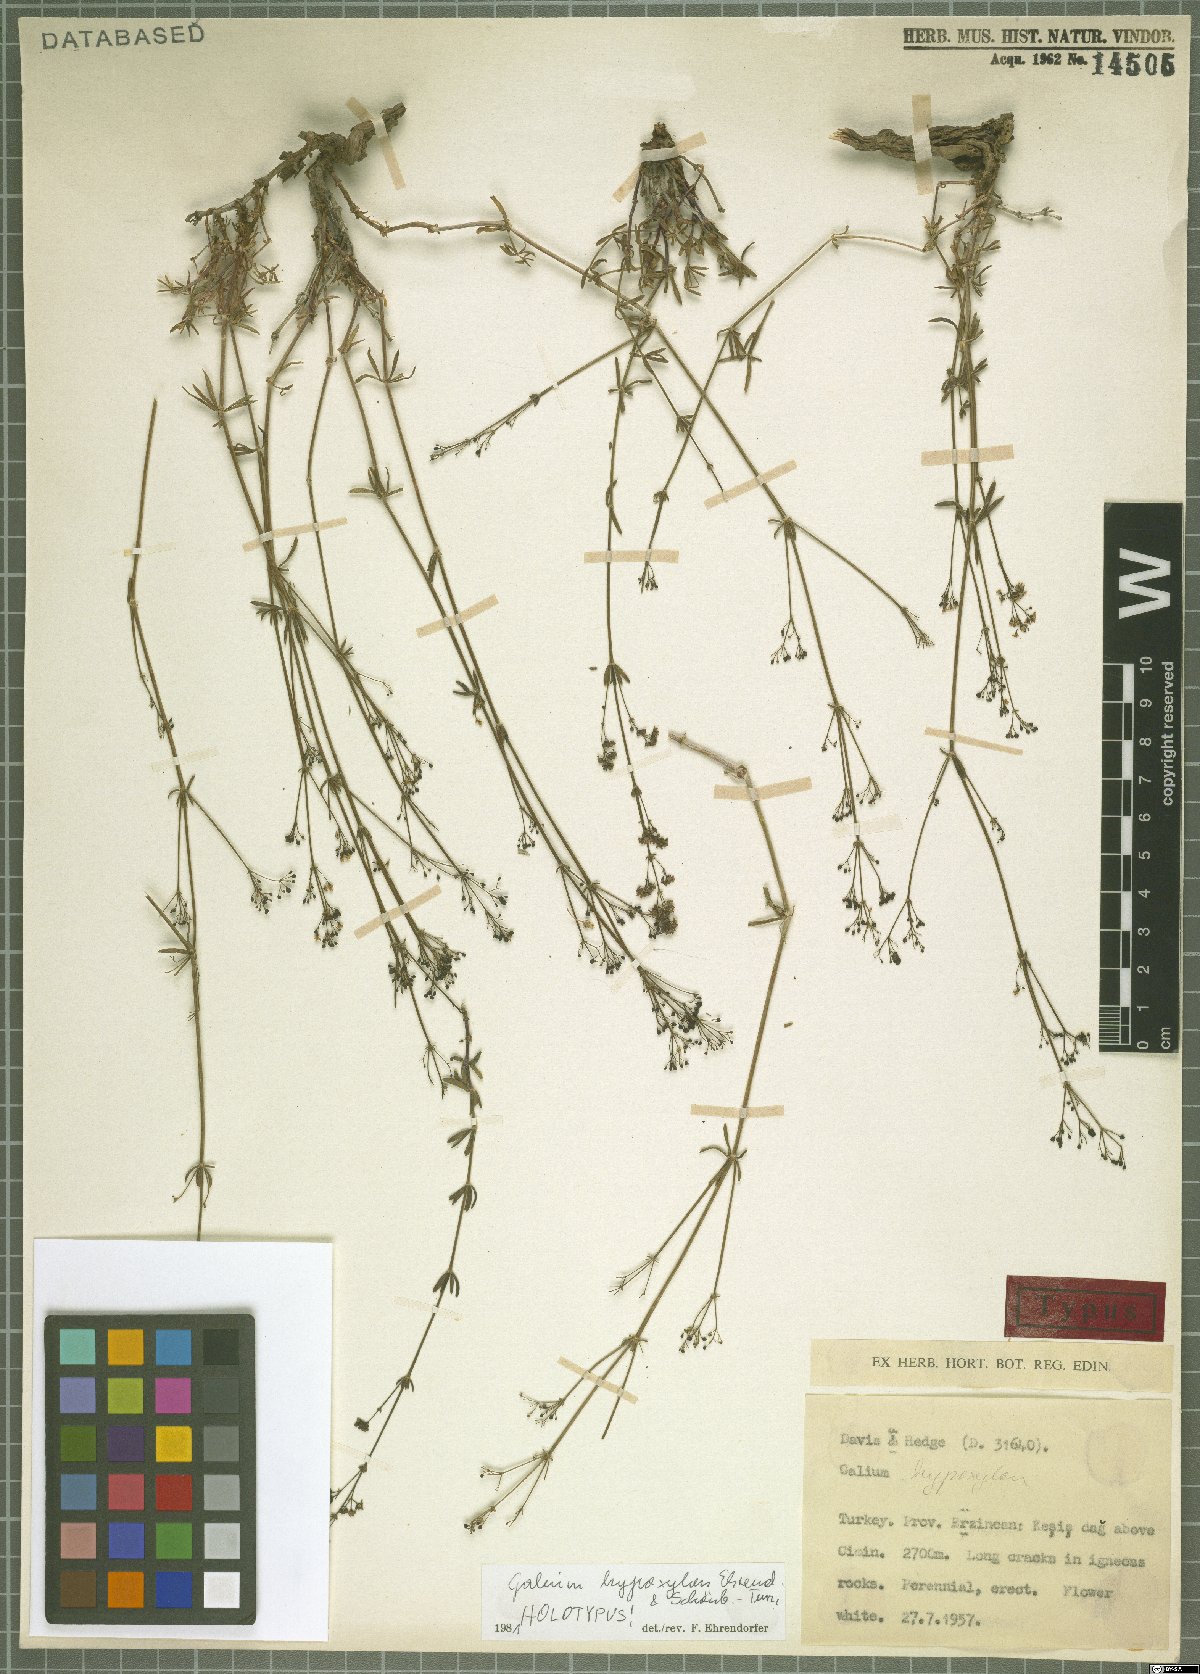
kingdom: Plantae
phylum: Tracheophyta
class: Magnoliopsida
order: Gentianales
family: Rubiaceae
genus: Galium
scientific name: Galium hypoxylon
